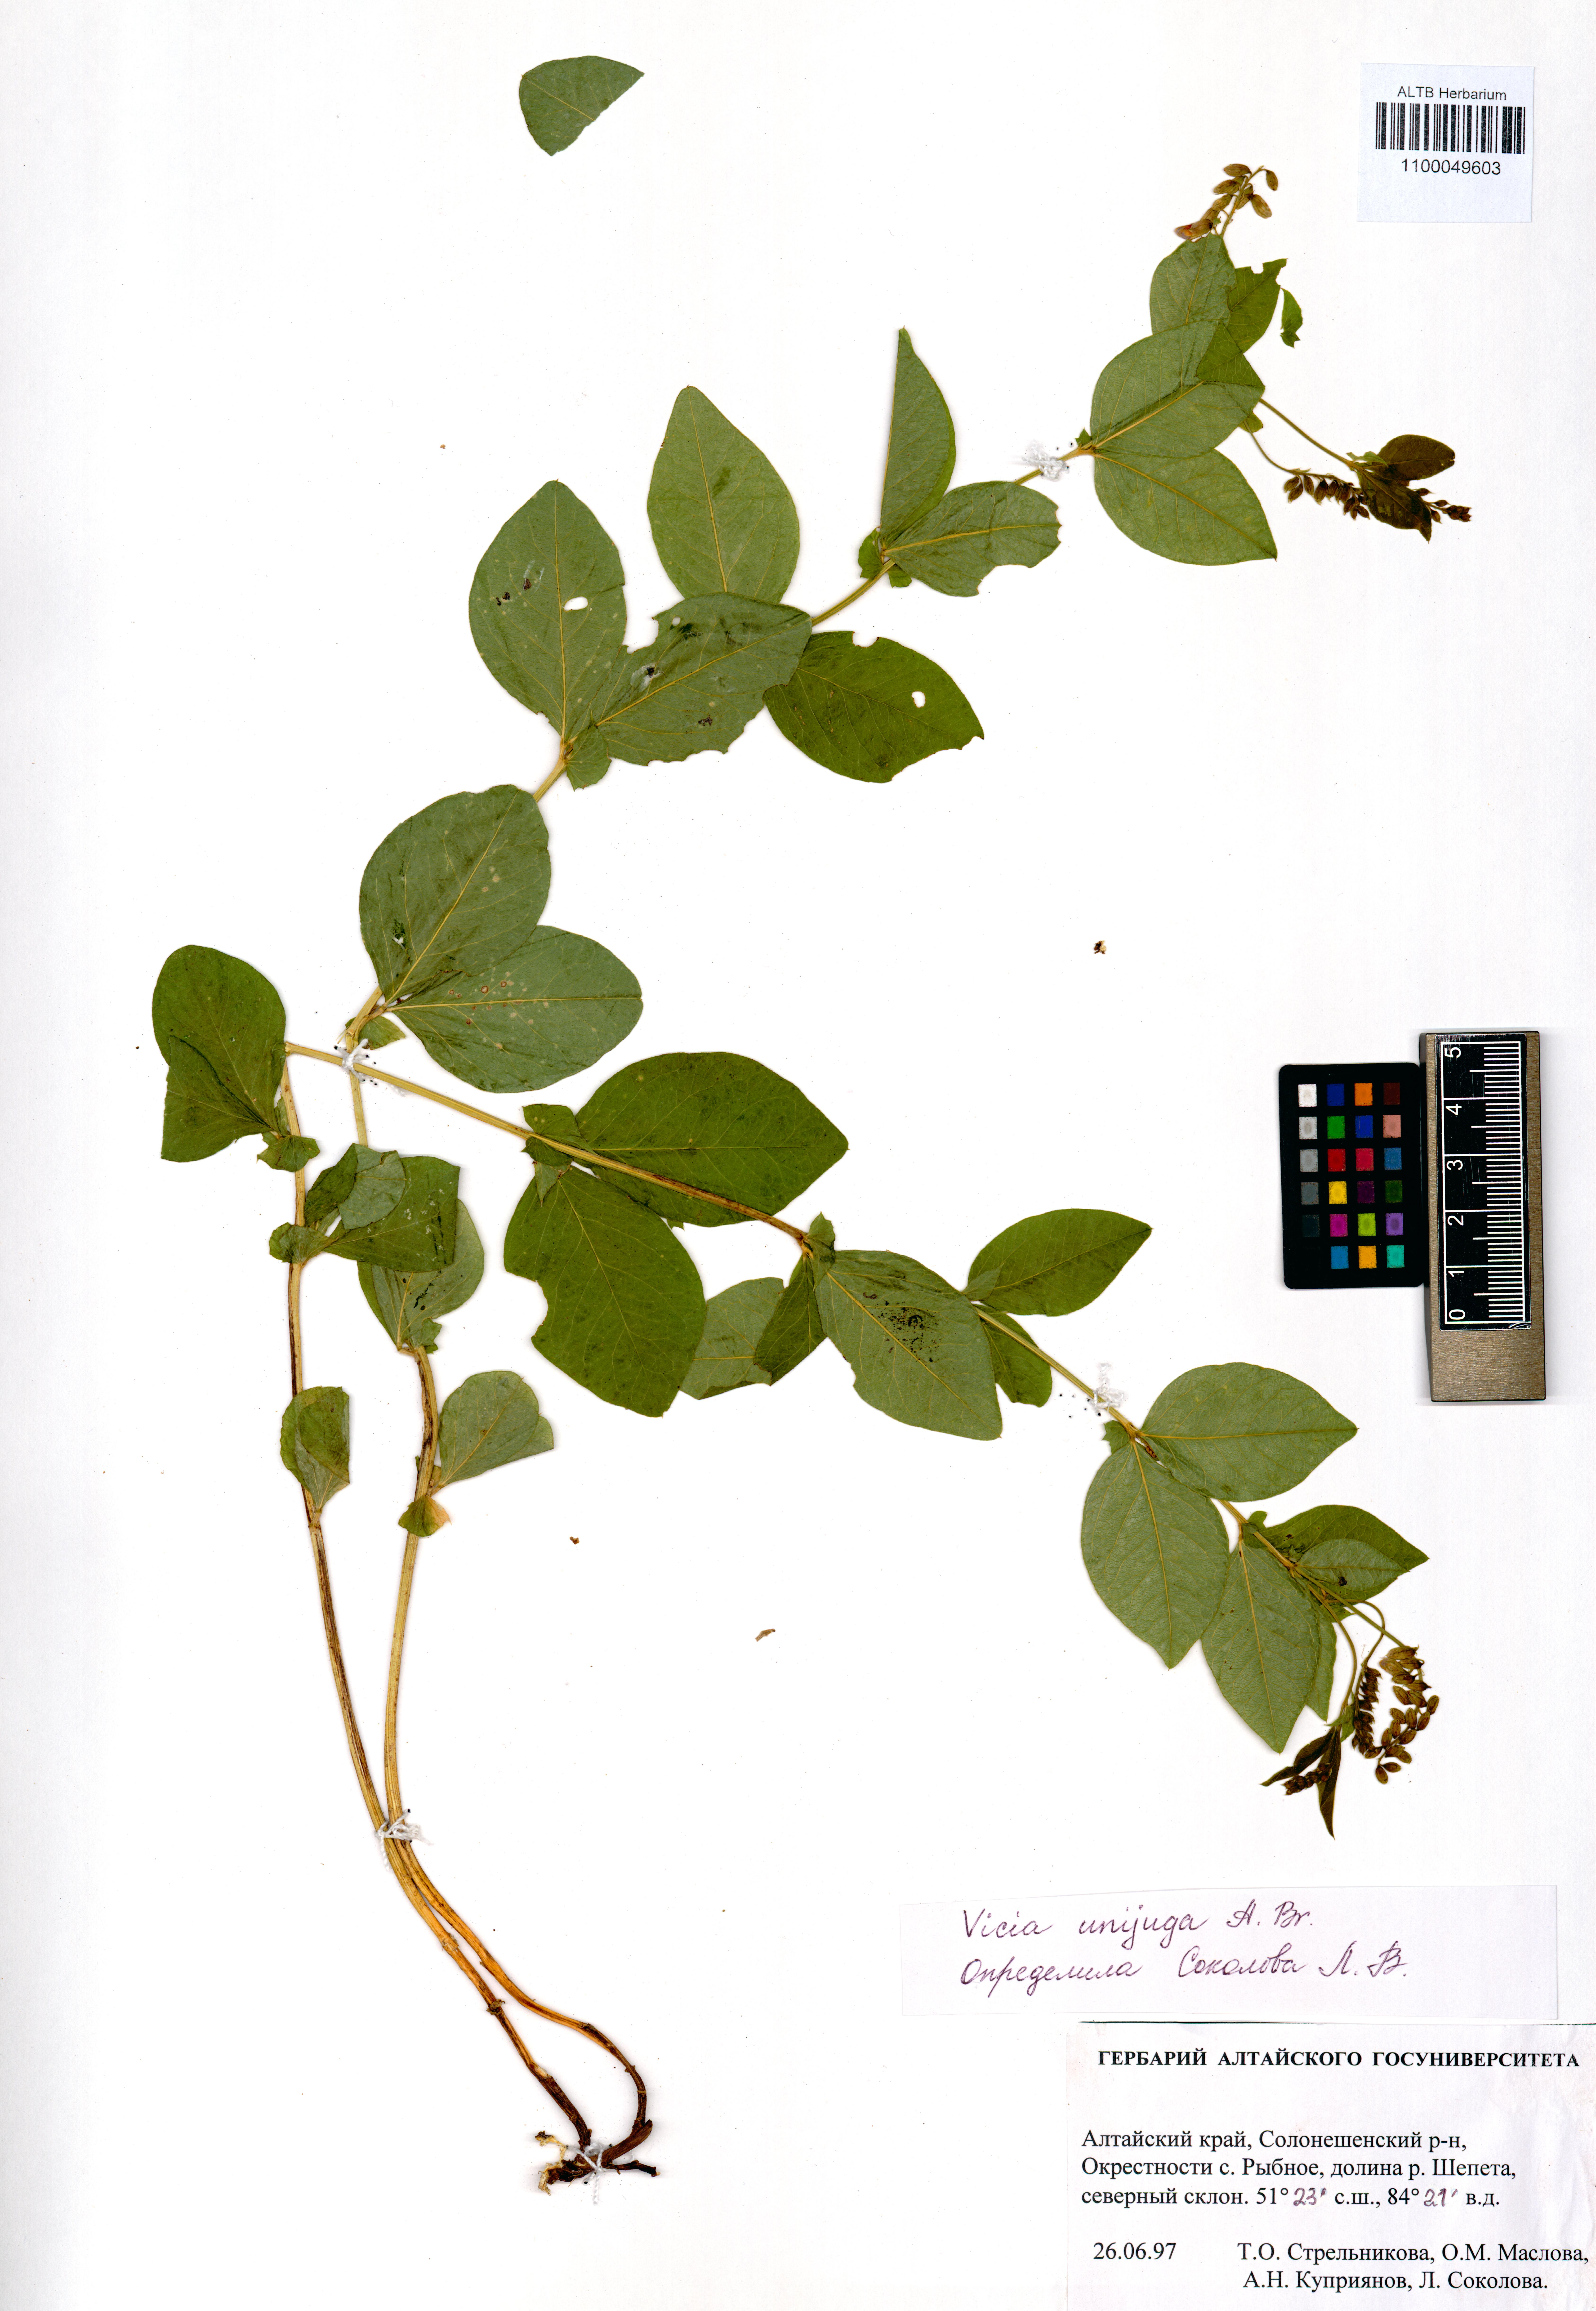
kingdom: Plantae
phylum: Tracheophyta
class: Magnoliopsida
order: Fabales
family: Fabaceae
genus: Vicia
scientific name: Vicia unijuga
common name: Two-leaf vetch
